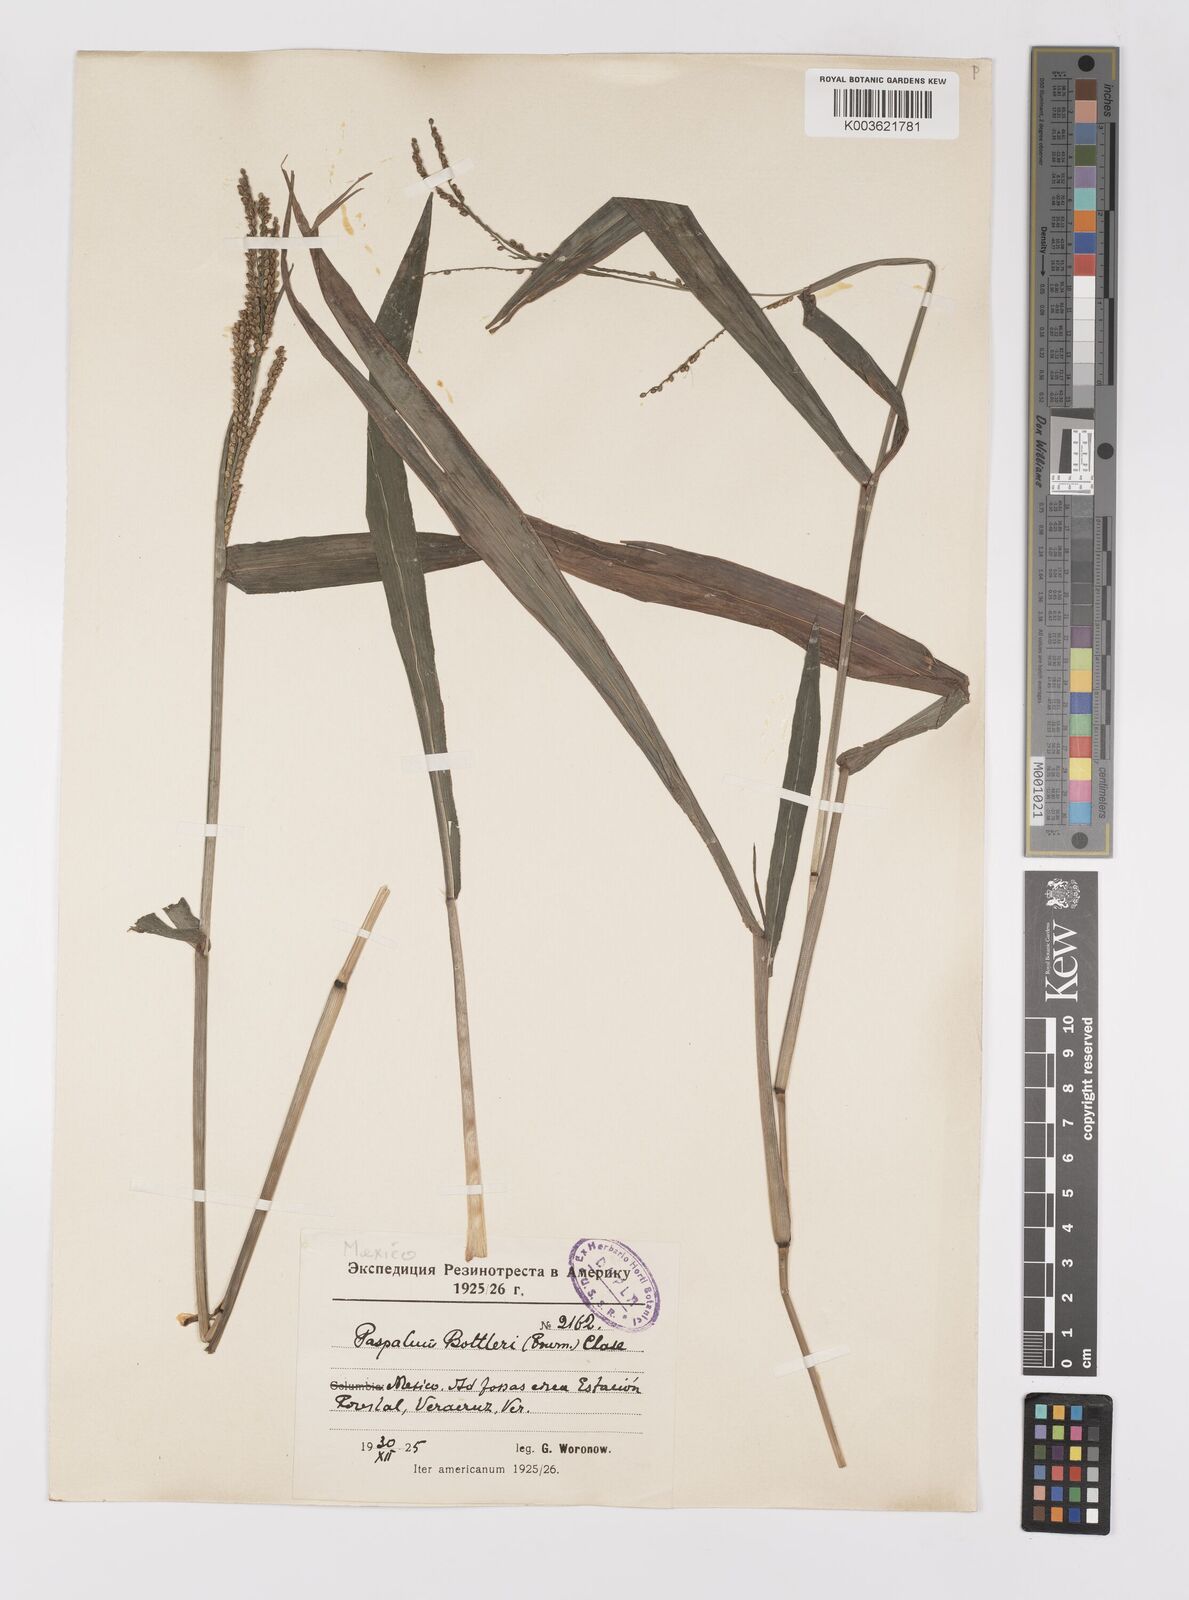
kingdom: Plantae
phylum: Tracheophyta
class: Liliopsida
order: Poales
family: Poaceae
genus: Paspalum
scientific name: Paspalum botterii
